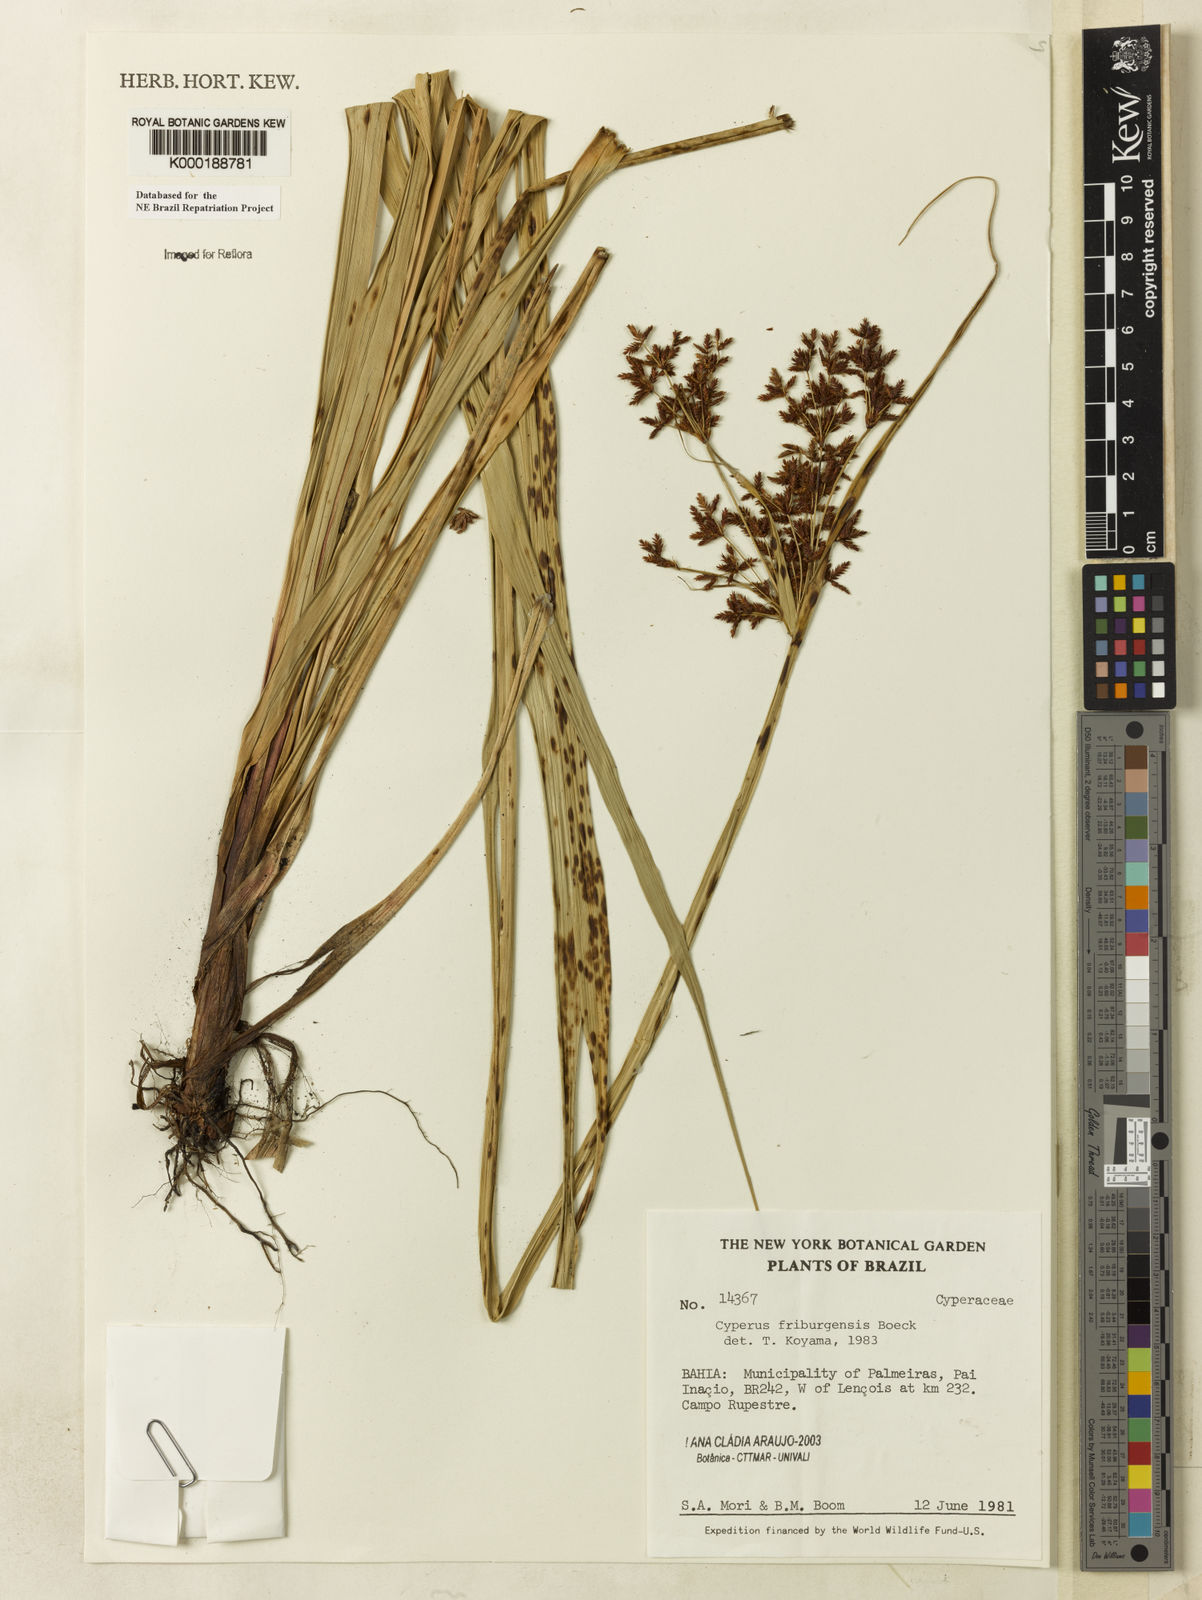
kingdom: Plantae
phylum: Tracheophyta
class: Liliopsida
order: Poales
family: Cyperaceae
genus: Cyperus
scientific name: Cyperus friburgensis
